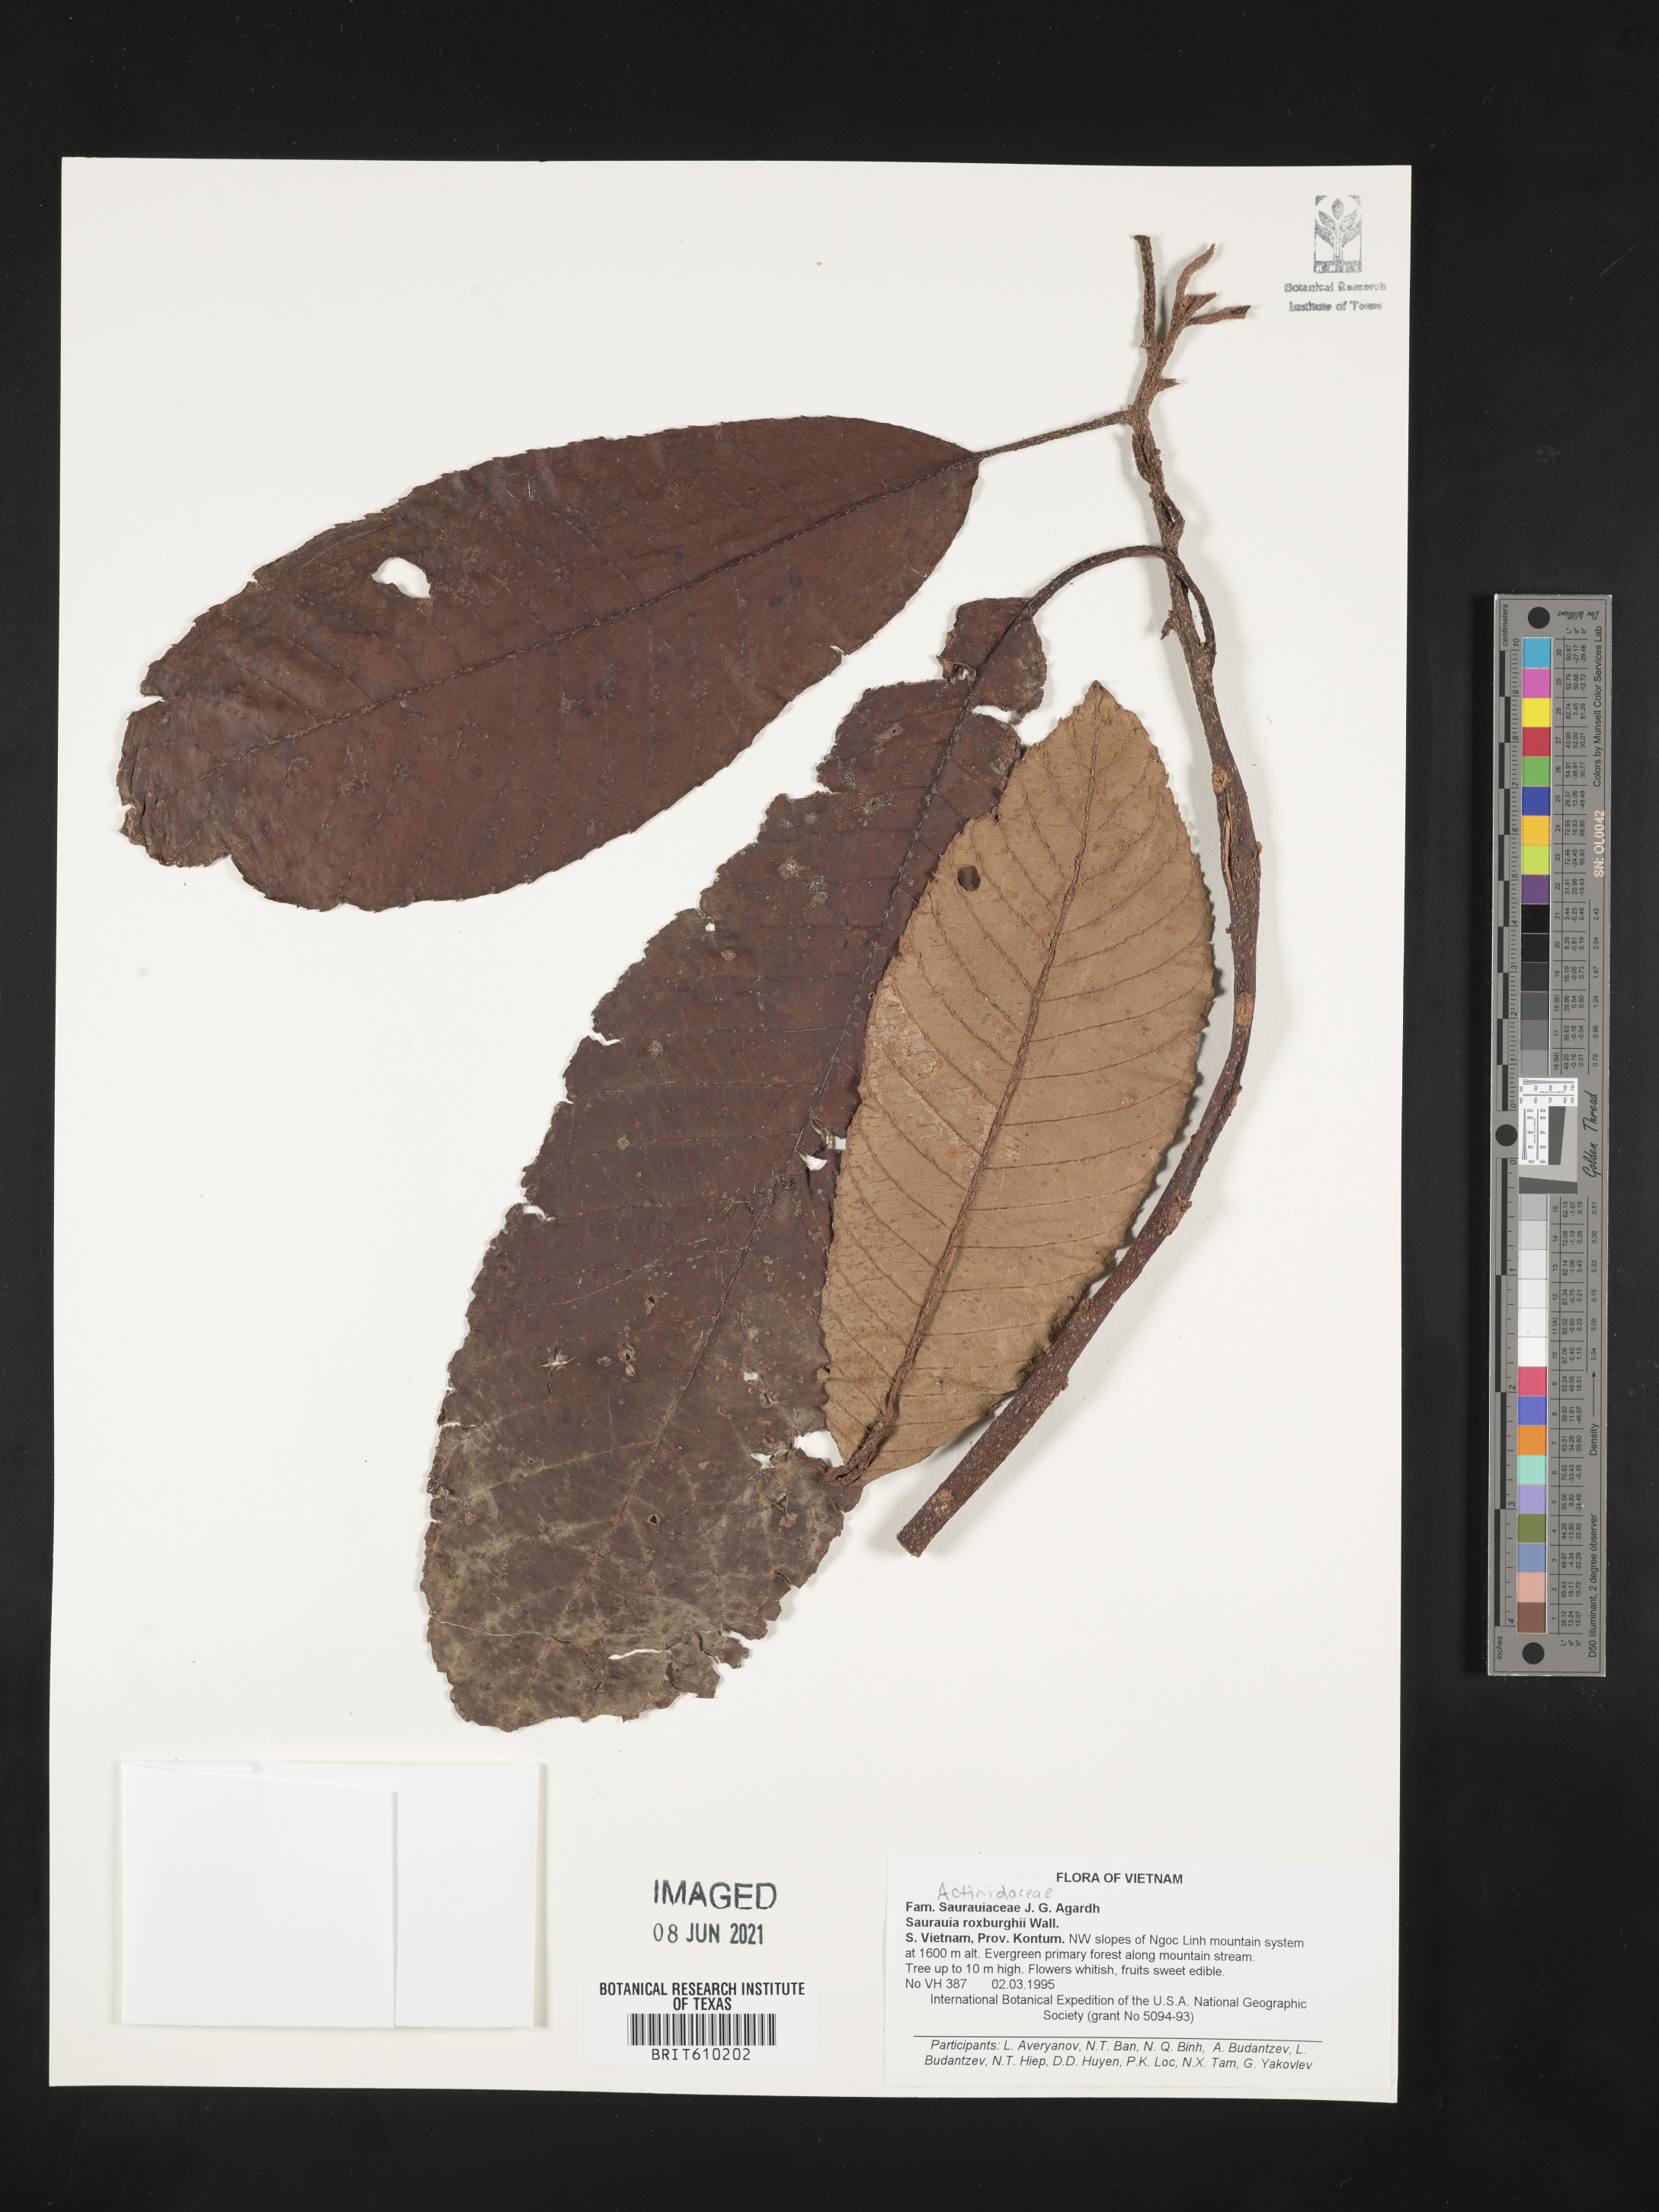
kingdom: Plantae
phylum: Tracheophyta
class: Magnoliopsida
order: Ericales
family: Actinidiaceae
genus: Saurauia
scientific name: Saurauia roxburghii
